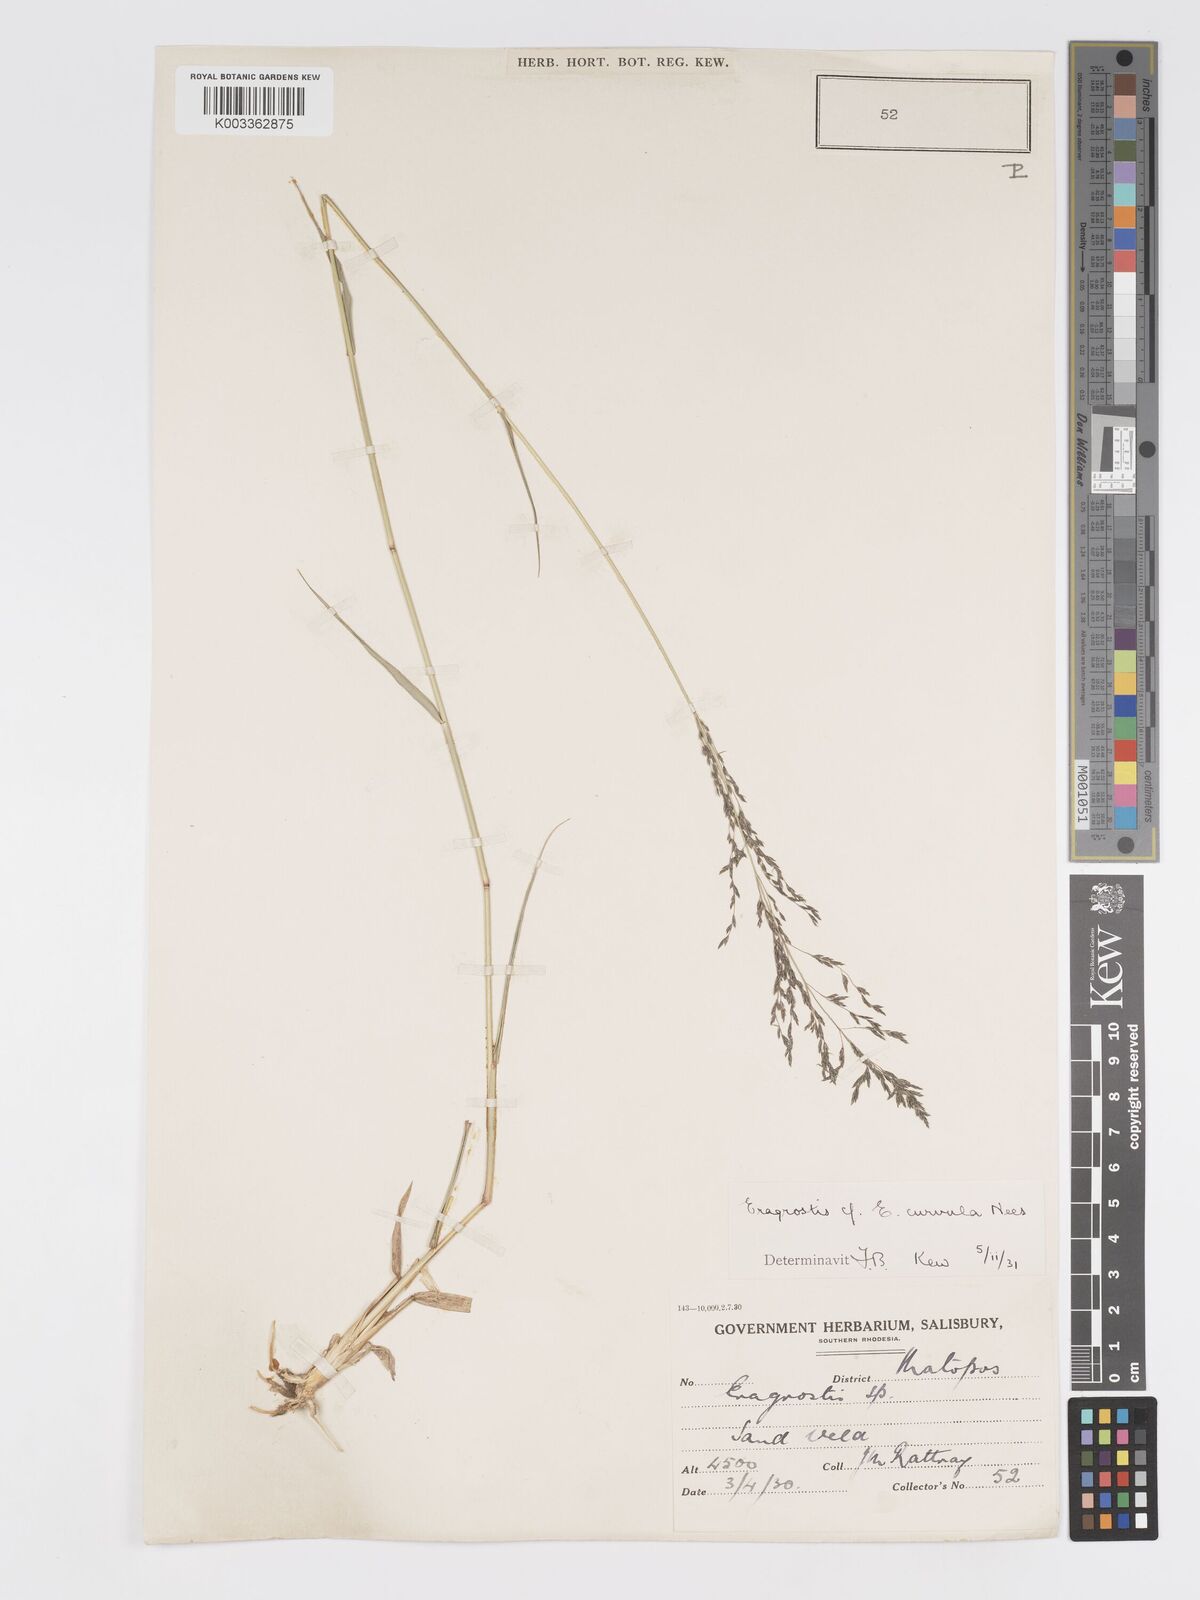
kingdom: Plantae
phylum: Tracheophyta
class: Liliopsida
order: Poales
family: Poaceae
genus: Eragrostis
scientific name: Eragrostis cylindriflora
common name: Cylinderflower lovegrass
